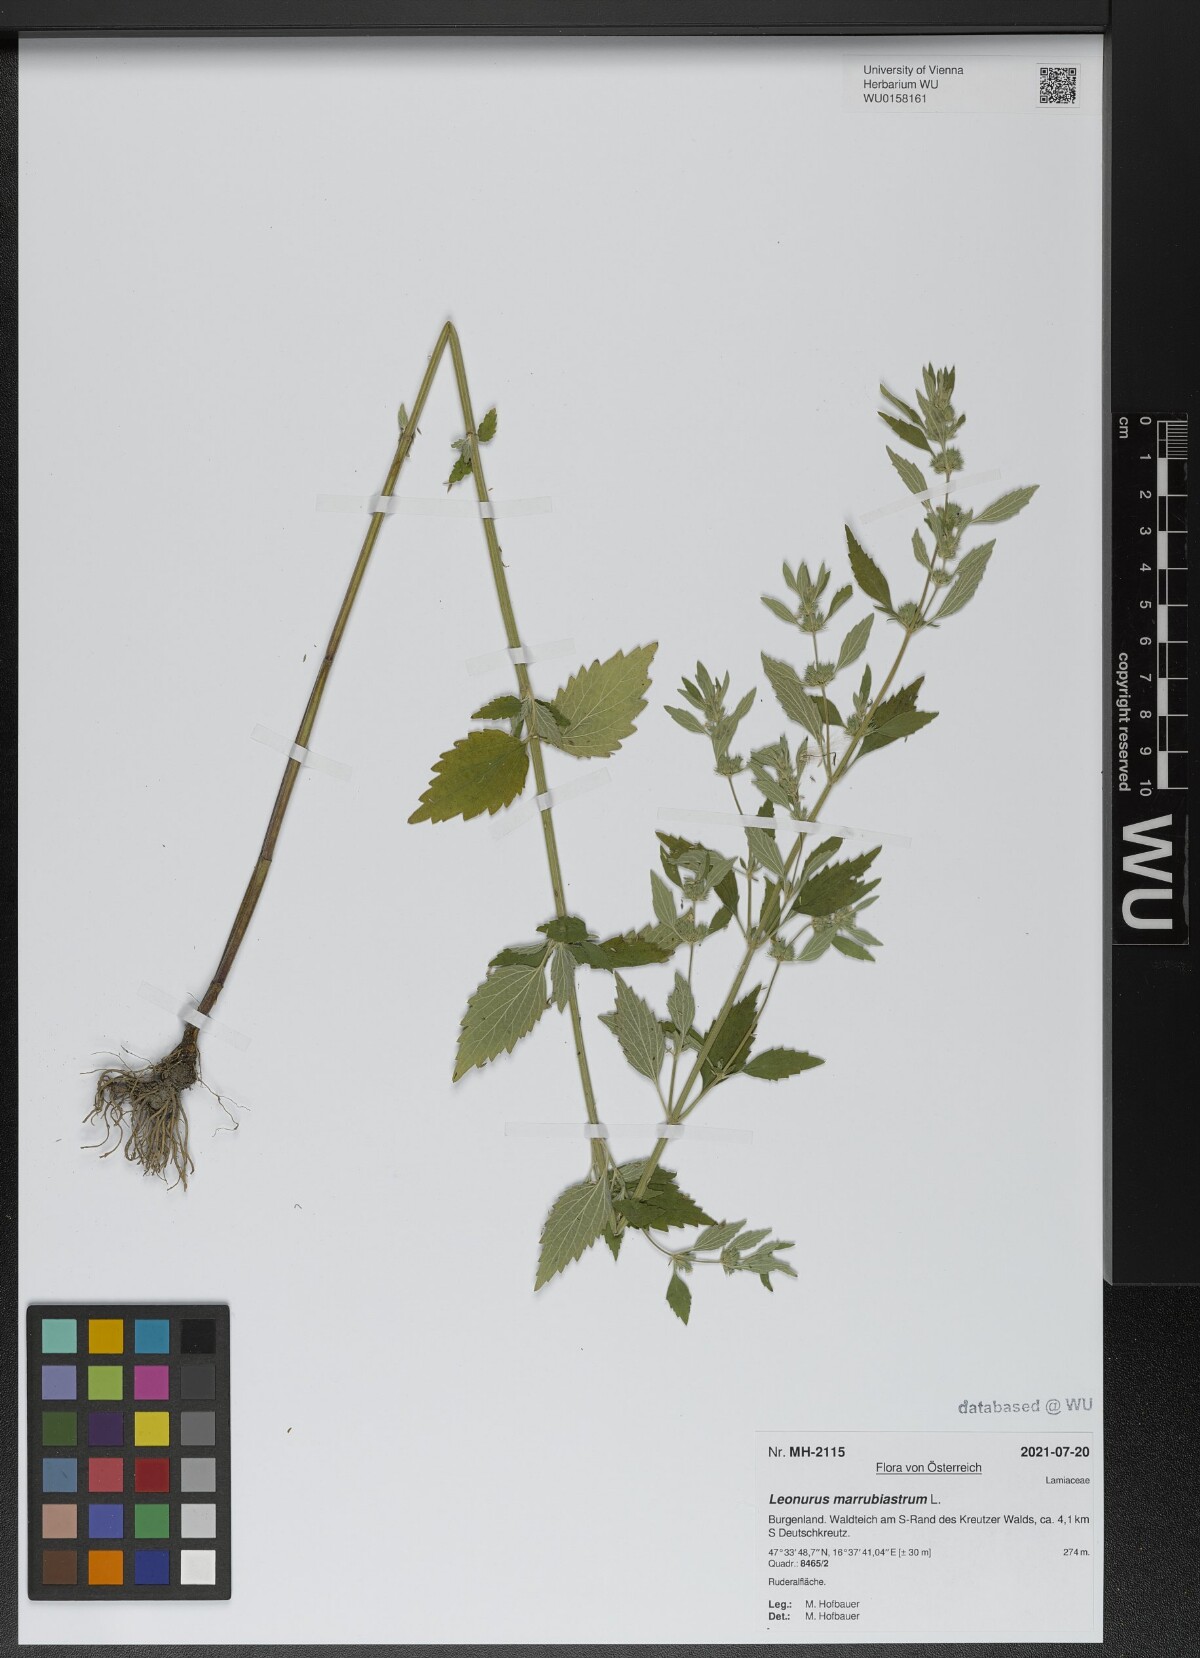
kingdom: Plantae
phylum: Tracheophyta
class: Magnoliopsida
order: Lamiales
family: Lamiaceae
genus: Chaiturus
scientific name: Chaiturus marrubiastrum
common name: Lion's tail
